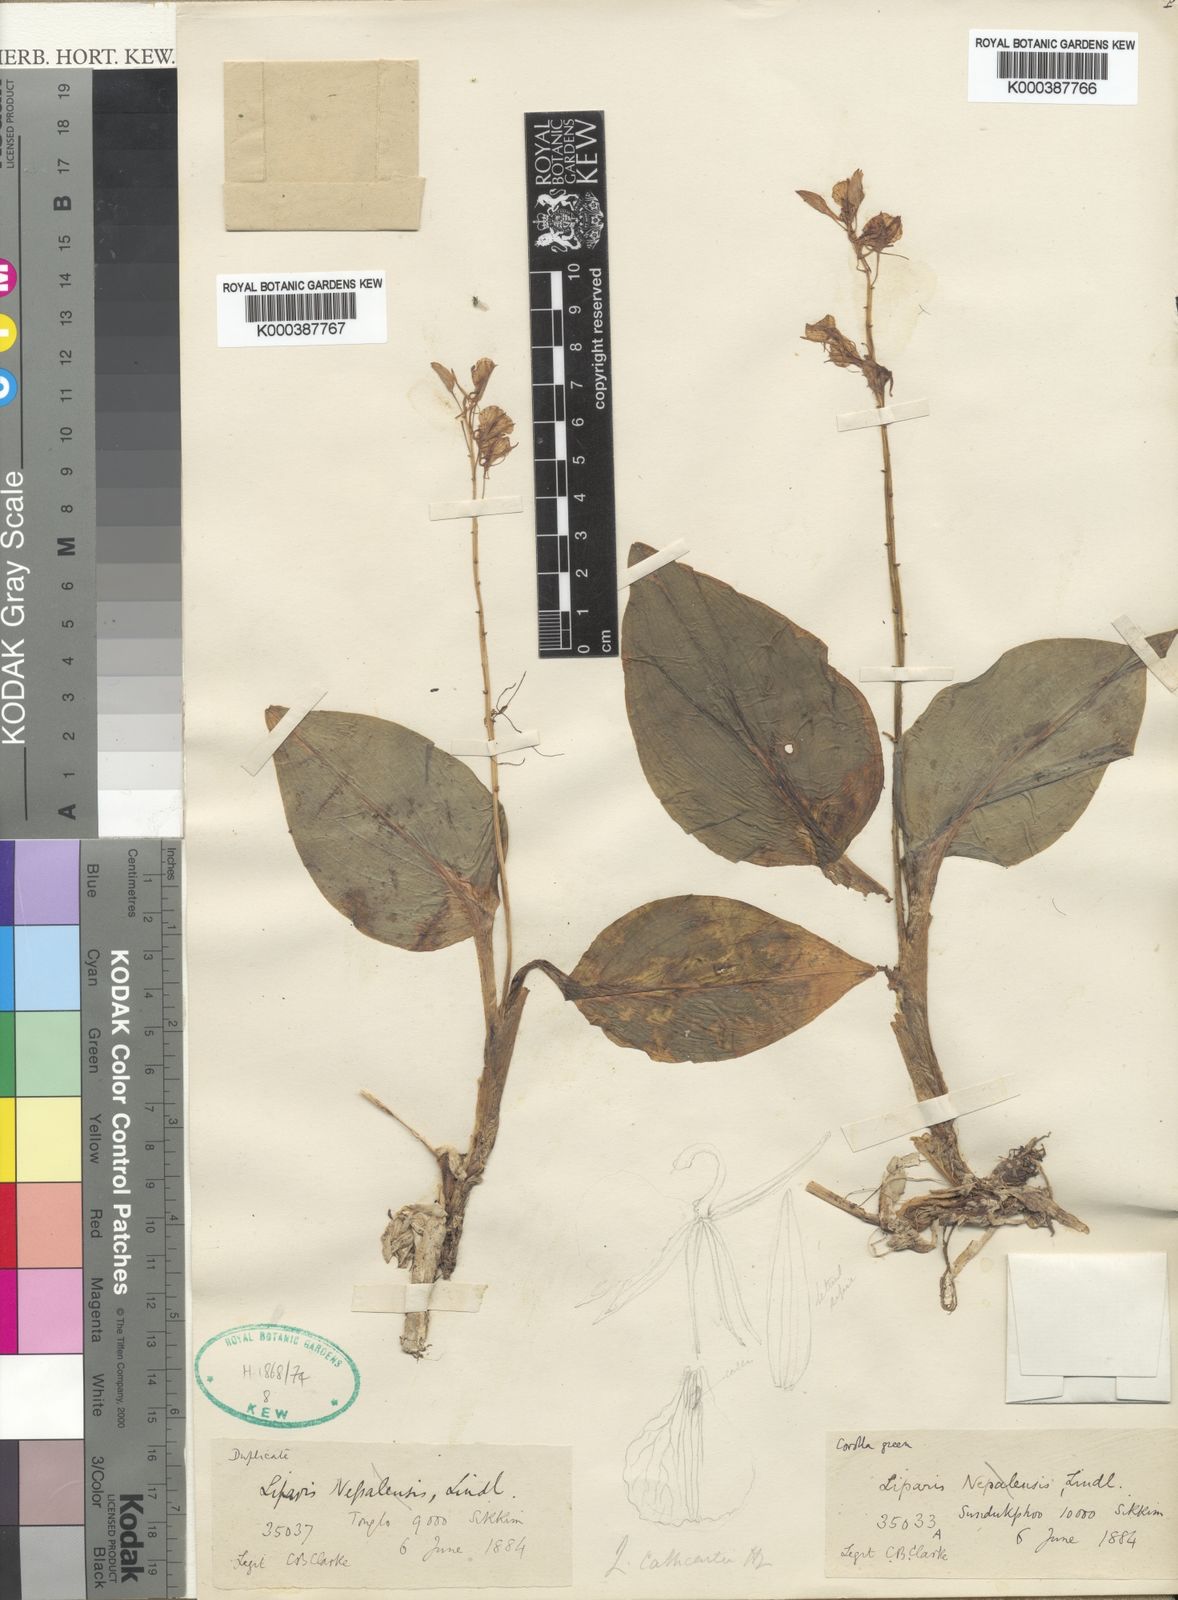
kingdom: Plantae
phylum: Tracheophyta
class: Liliopsida
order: Asparagales
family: Orchidaceae
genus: Liparis
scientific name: Liparis cathcartii
